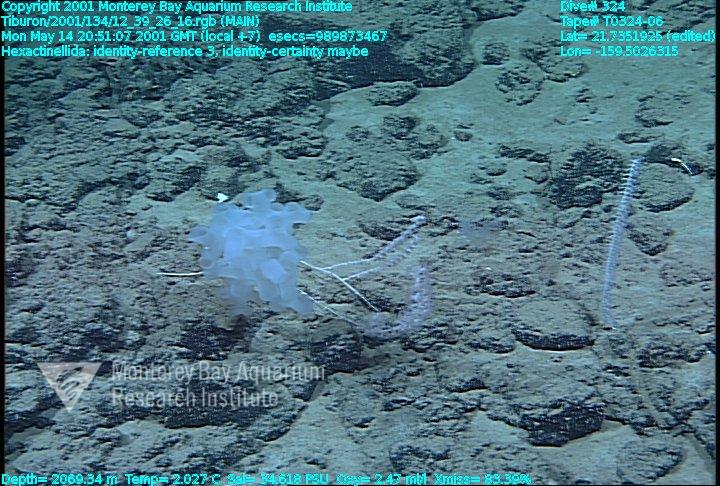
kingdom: Animalia
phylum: Porifera
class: Hexactinellida
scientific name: Hexactinellida
